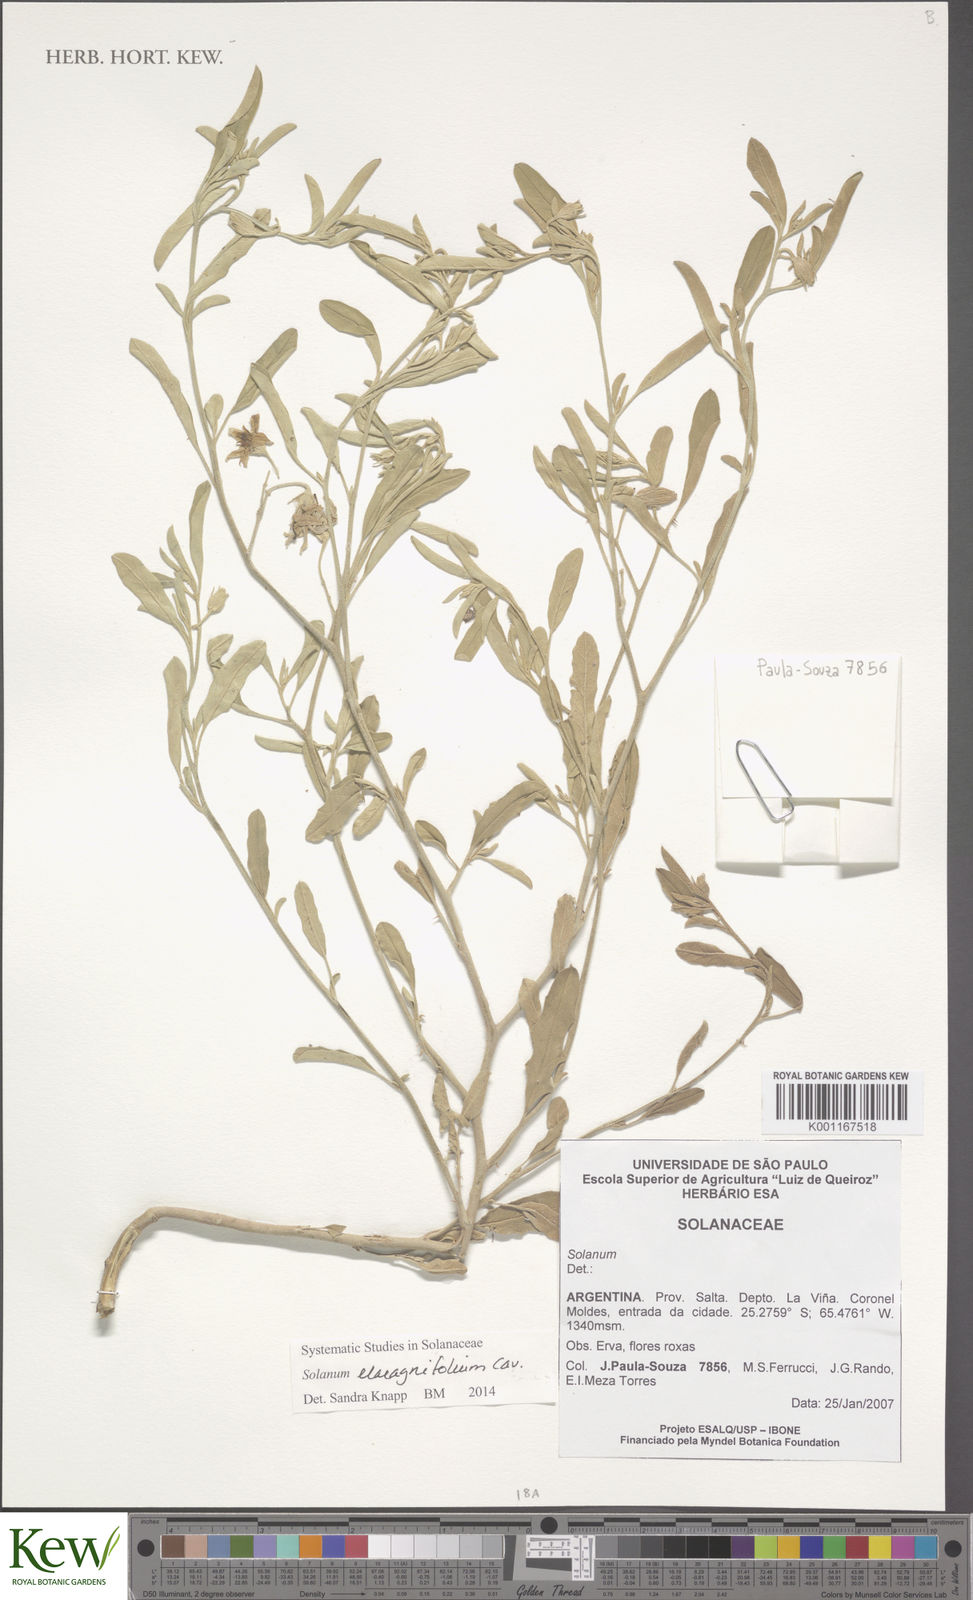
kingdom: Plantae
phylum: Tracheophyta
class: Magnoliopsida
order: Solanales
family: Solanaceae
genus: Solanum
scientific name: Solanum elaeagnifolium
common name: Silverleaf nightshade
